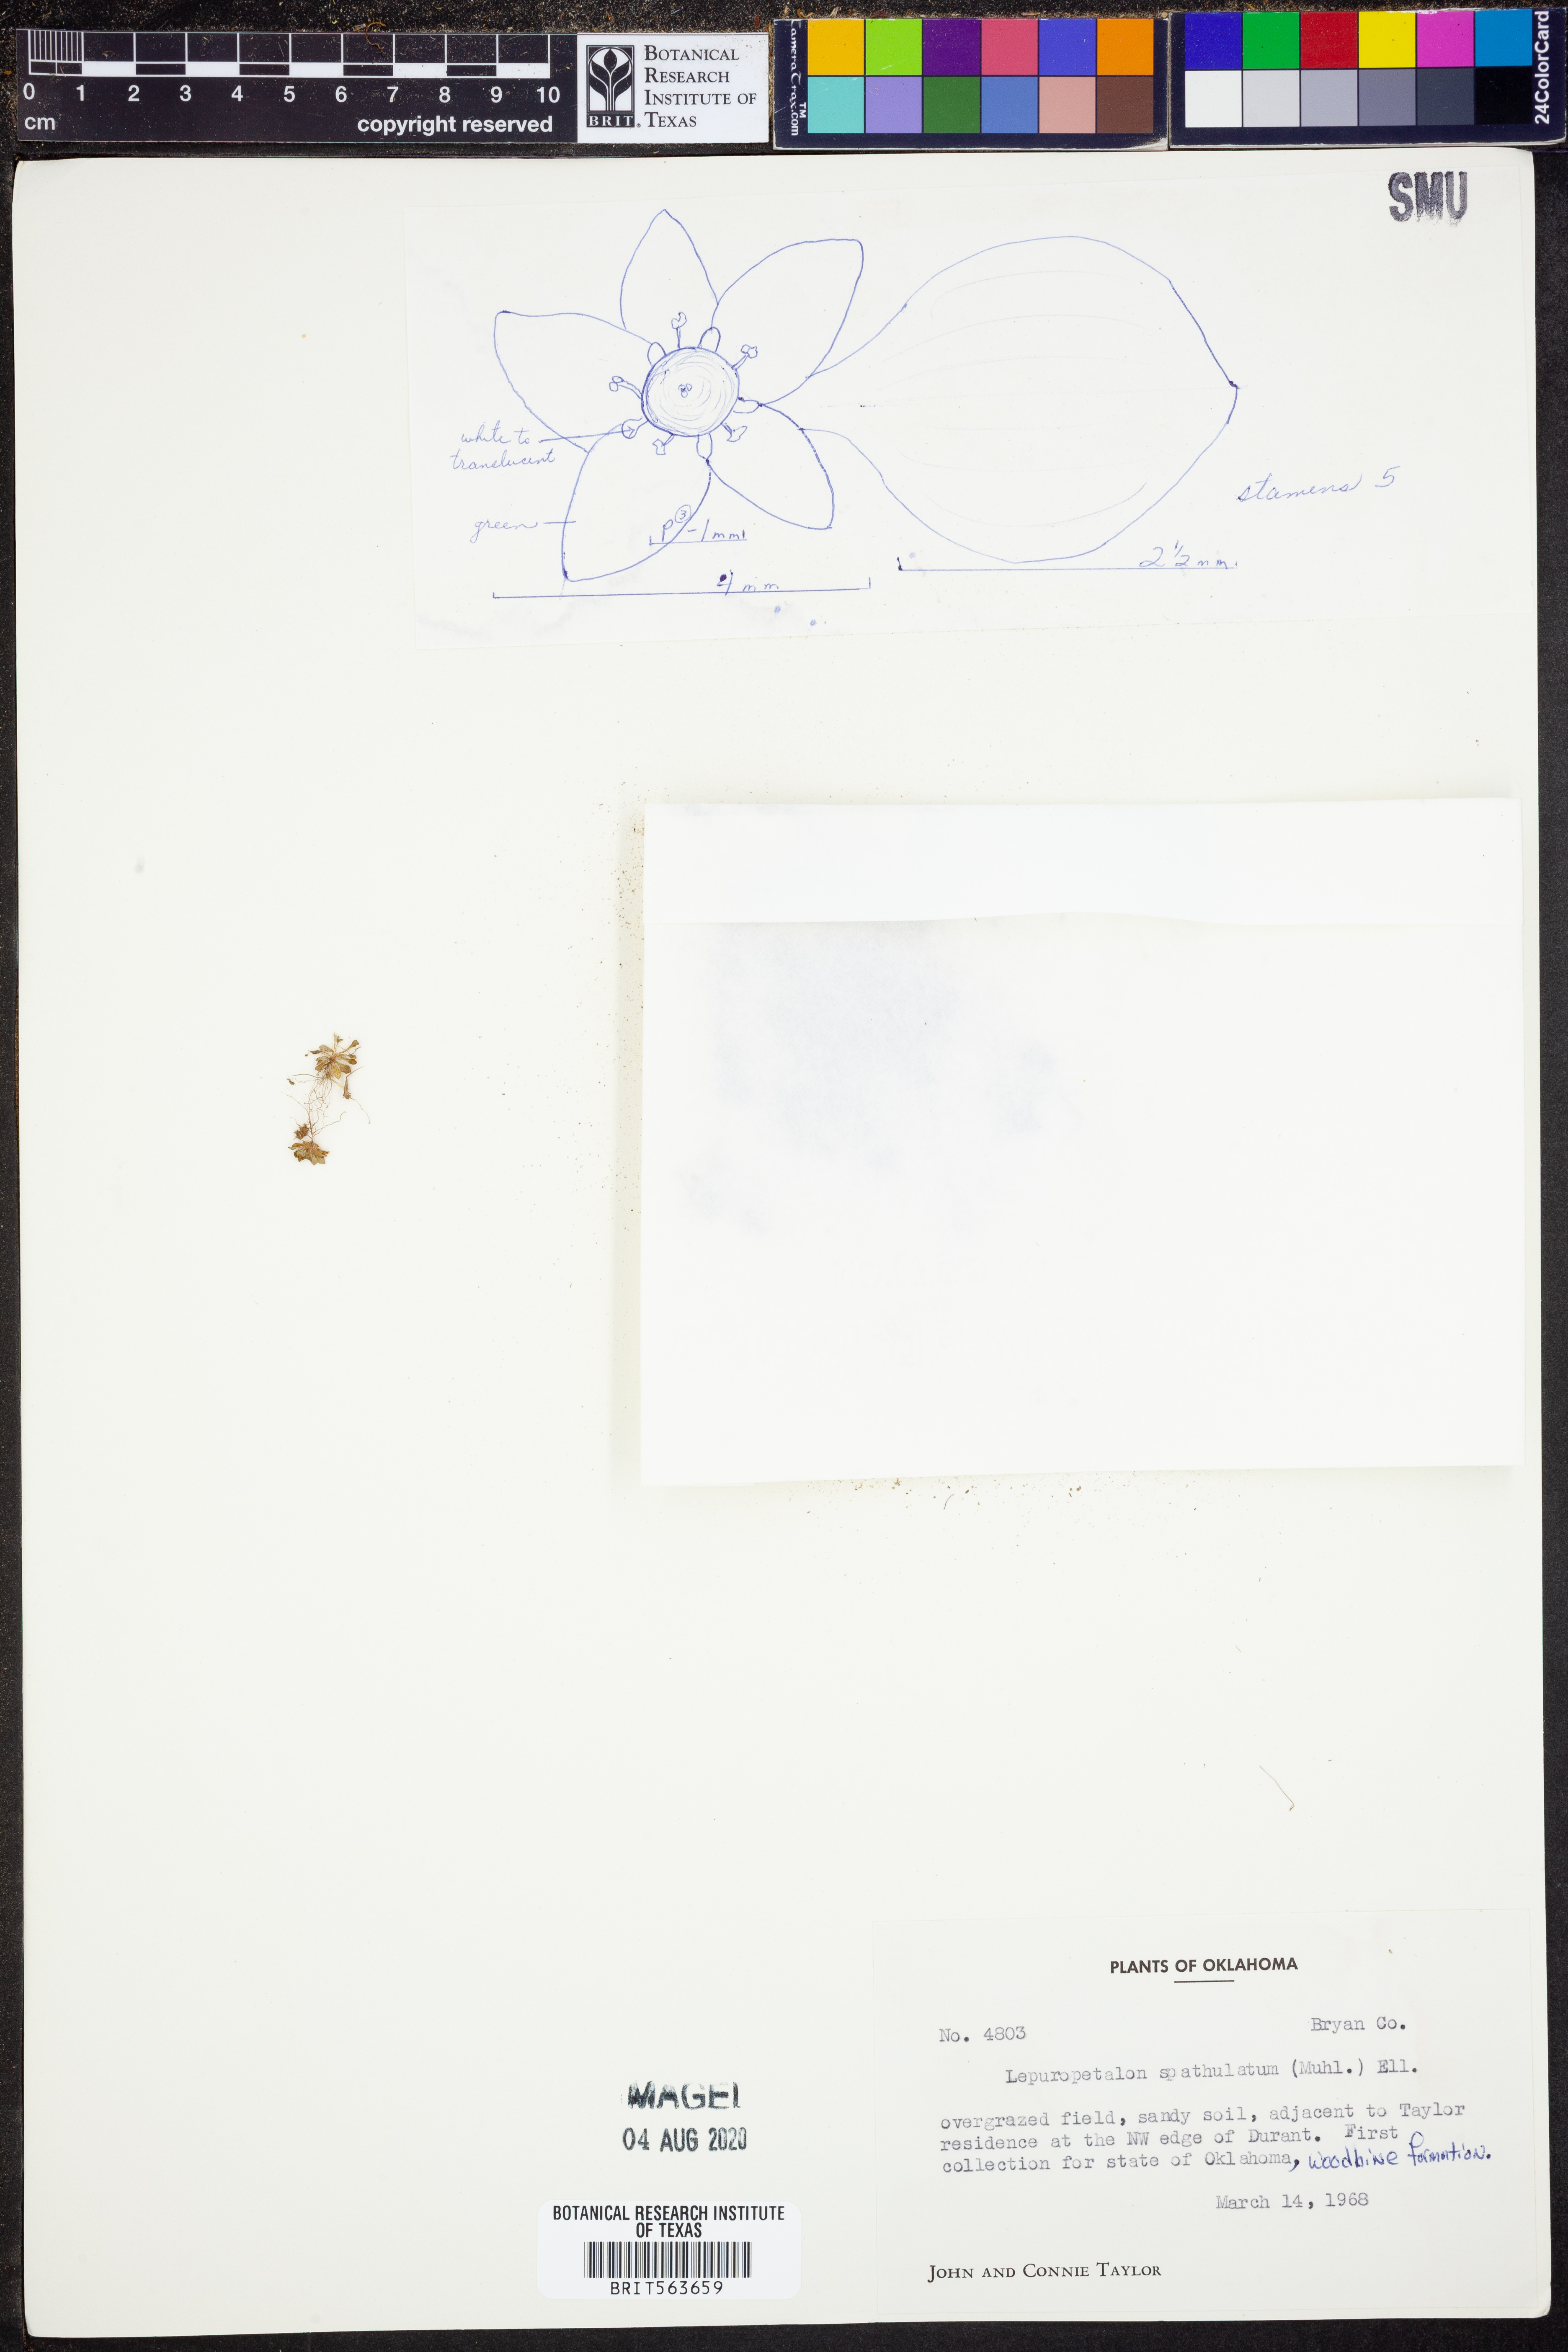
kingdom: Plantae
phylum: Tracheophyta
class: Magnoliopsida
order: Celastrales
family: Parnassiaceae
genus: Lepuropetalon
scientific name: Lepuropetalon spathulatum
